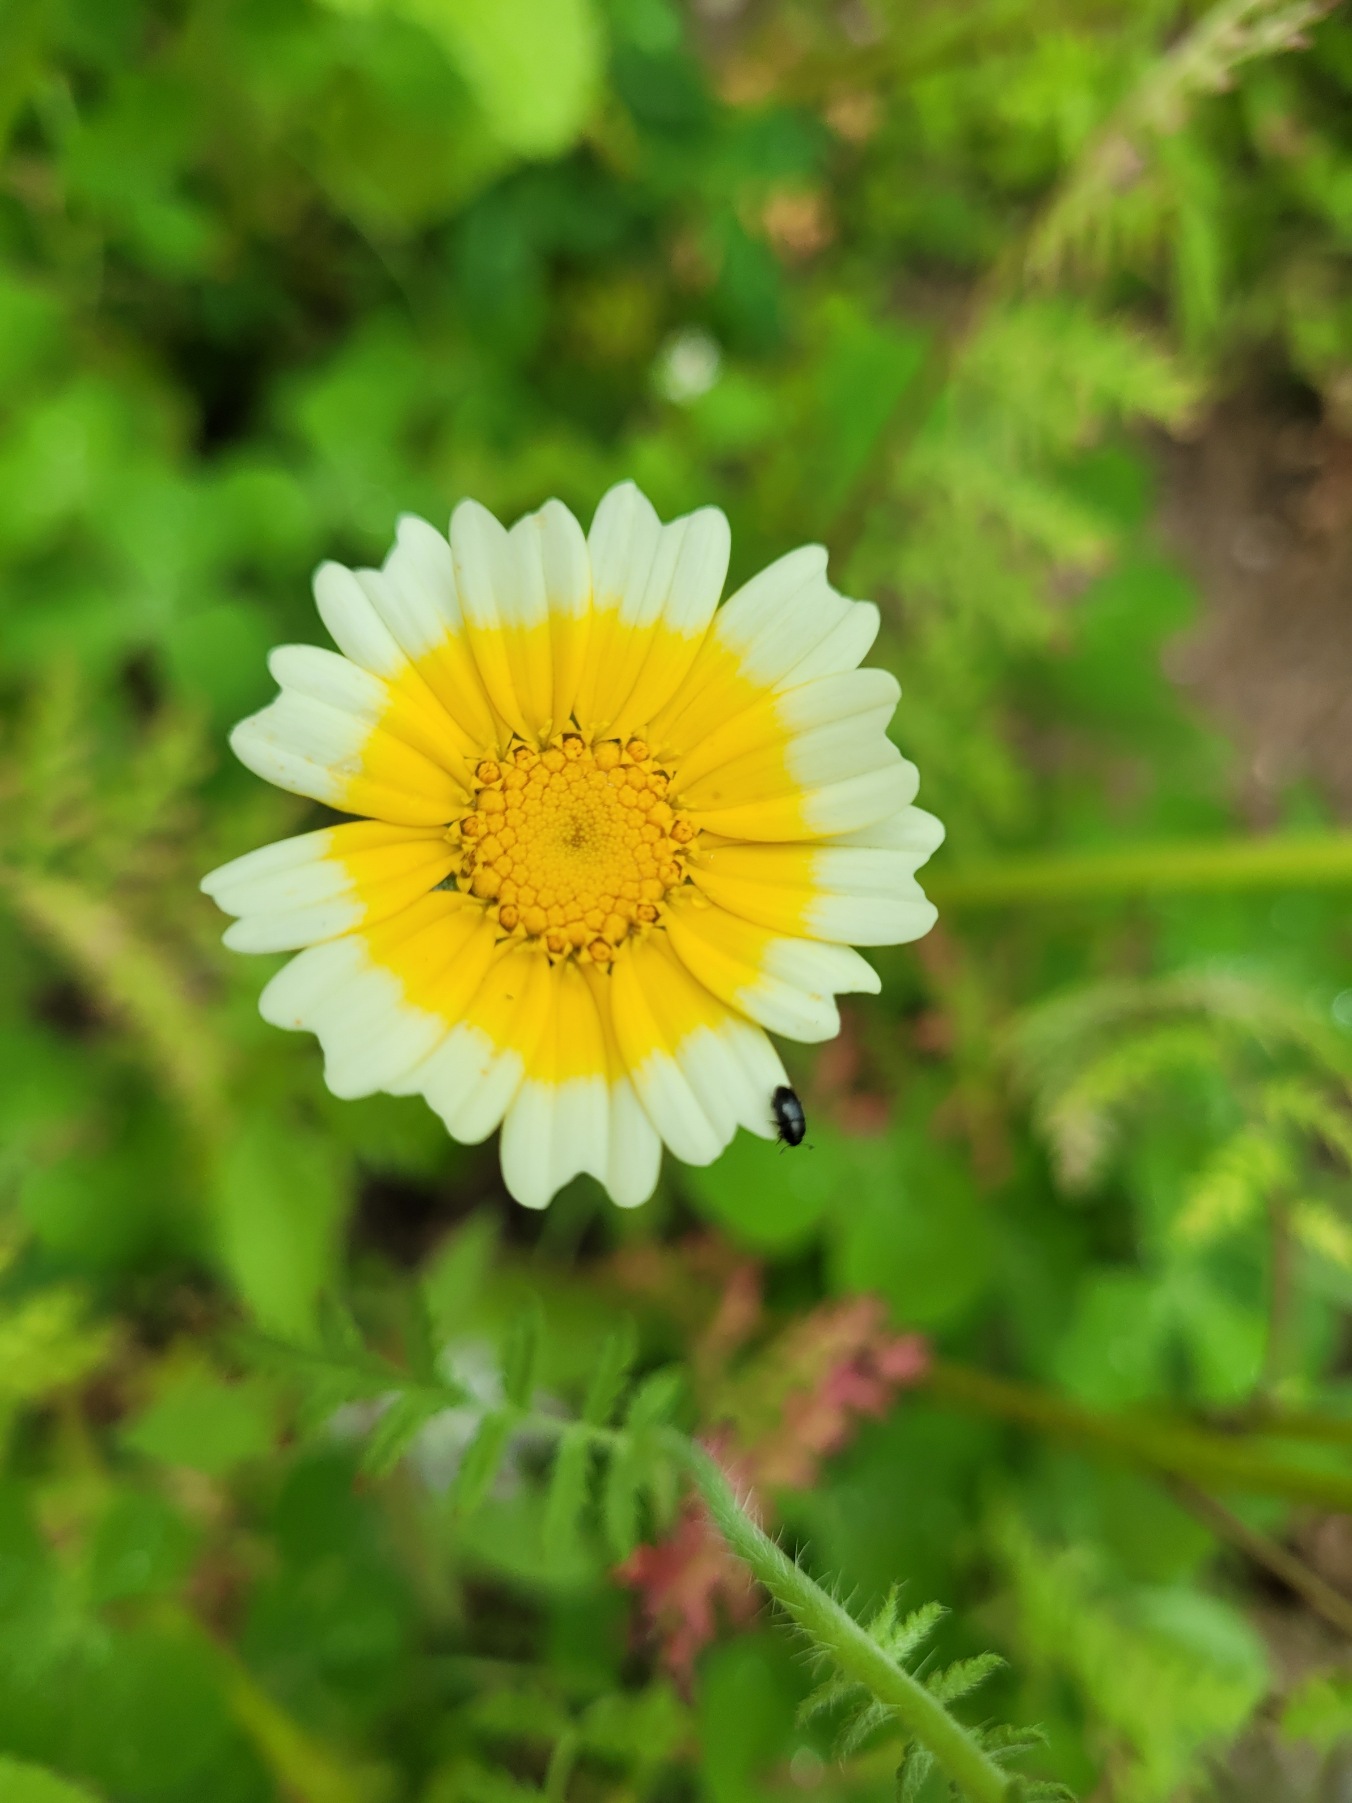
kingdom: Plantae
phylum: Tracheophyta
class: Magnoliopsida
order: Asterales
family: Asteraceae
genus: Glebionis
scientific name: Glebionis coronaria
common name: Kron-okseøje
